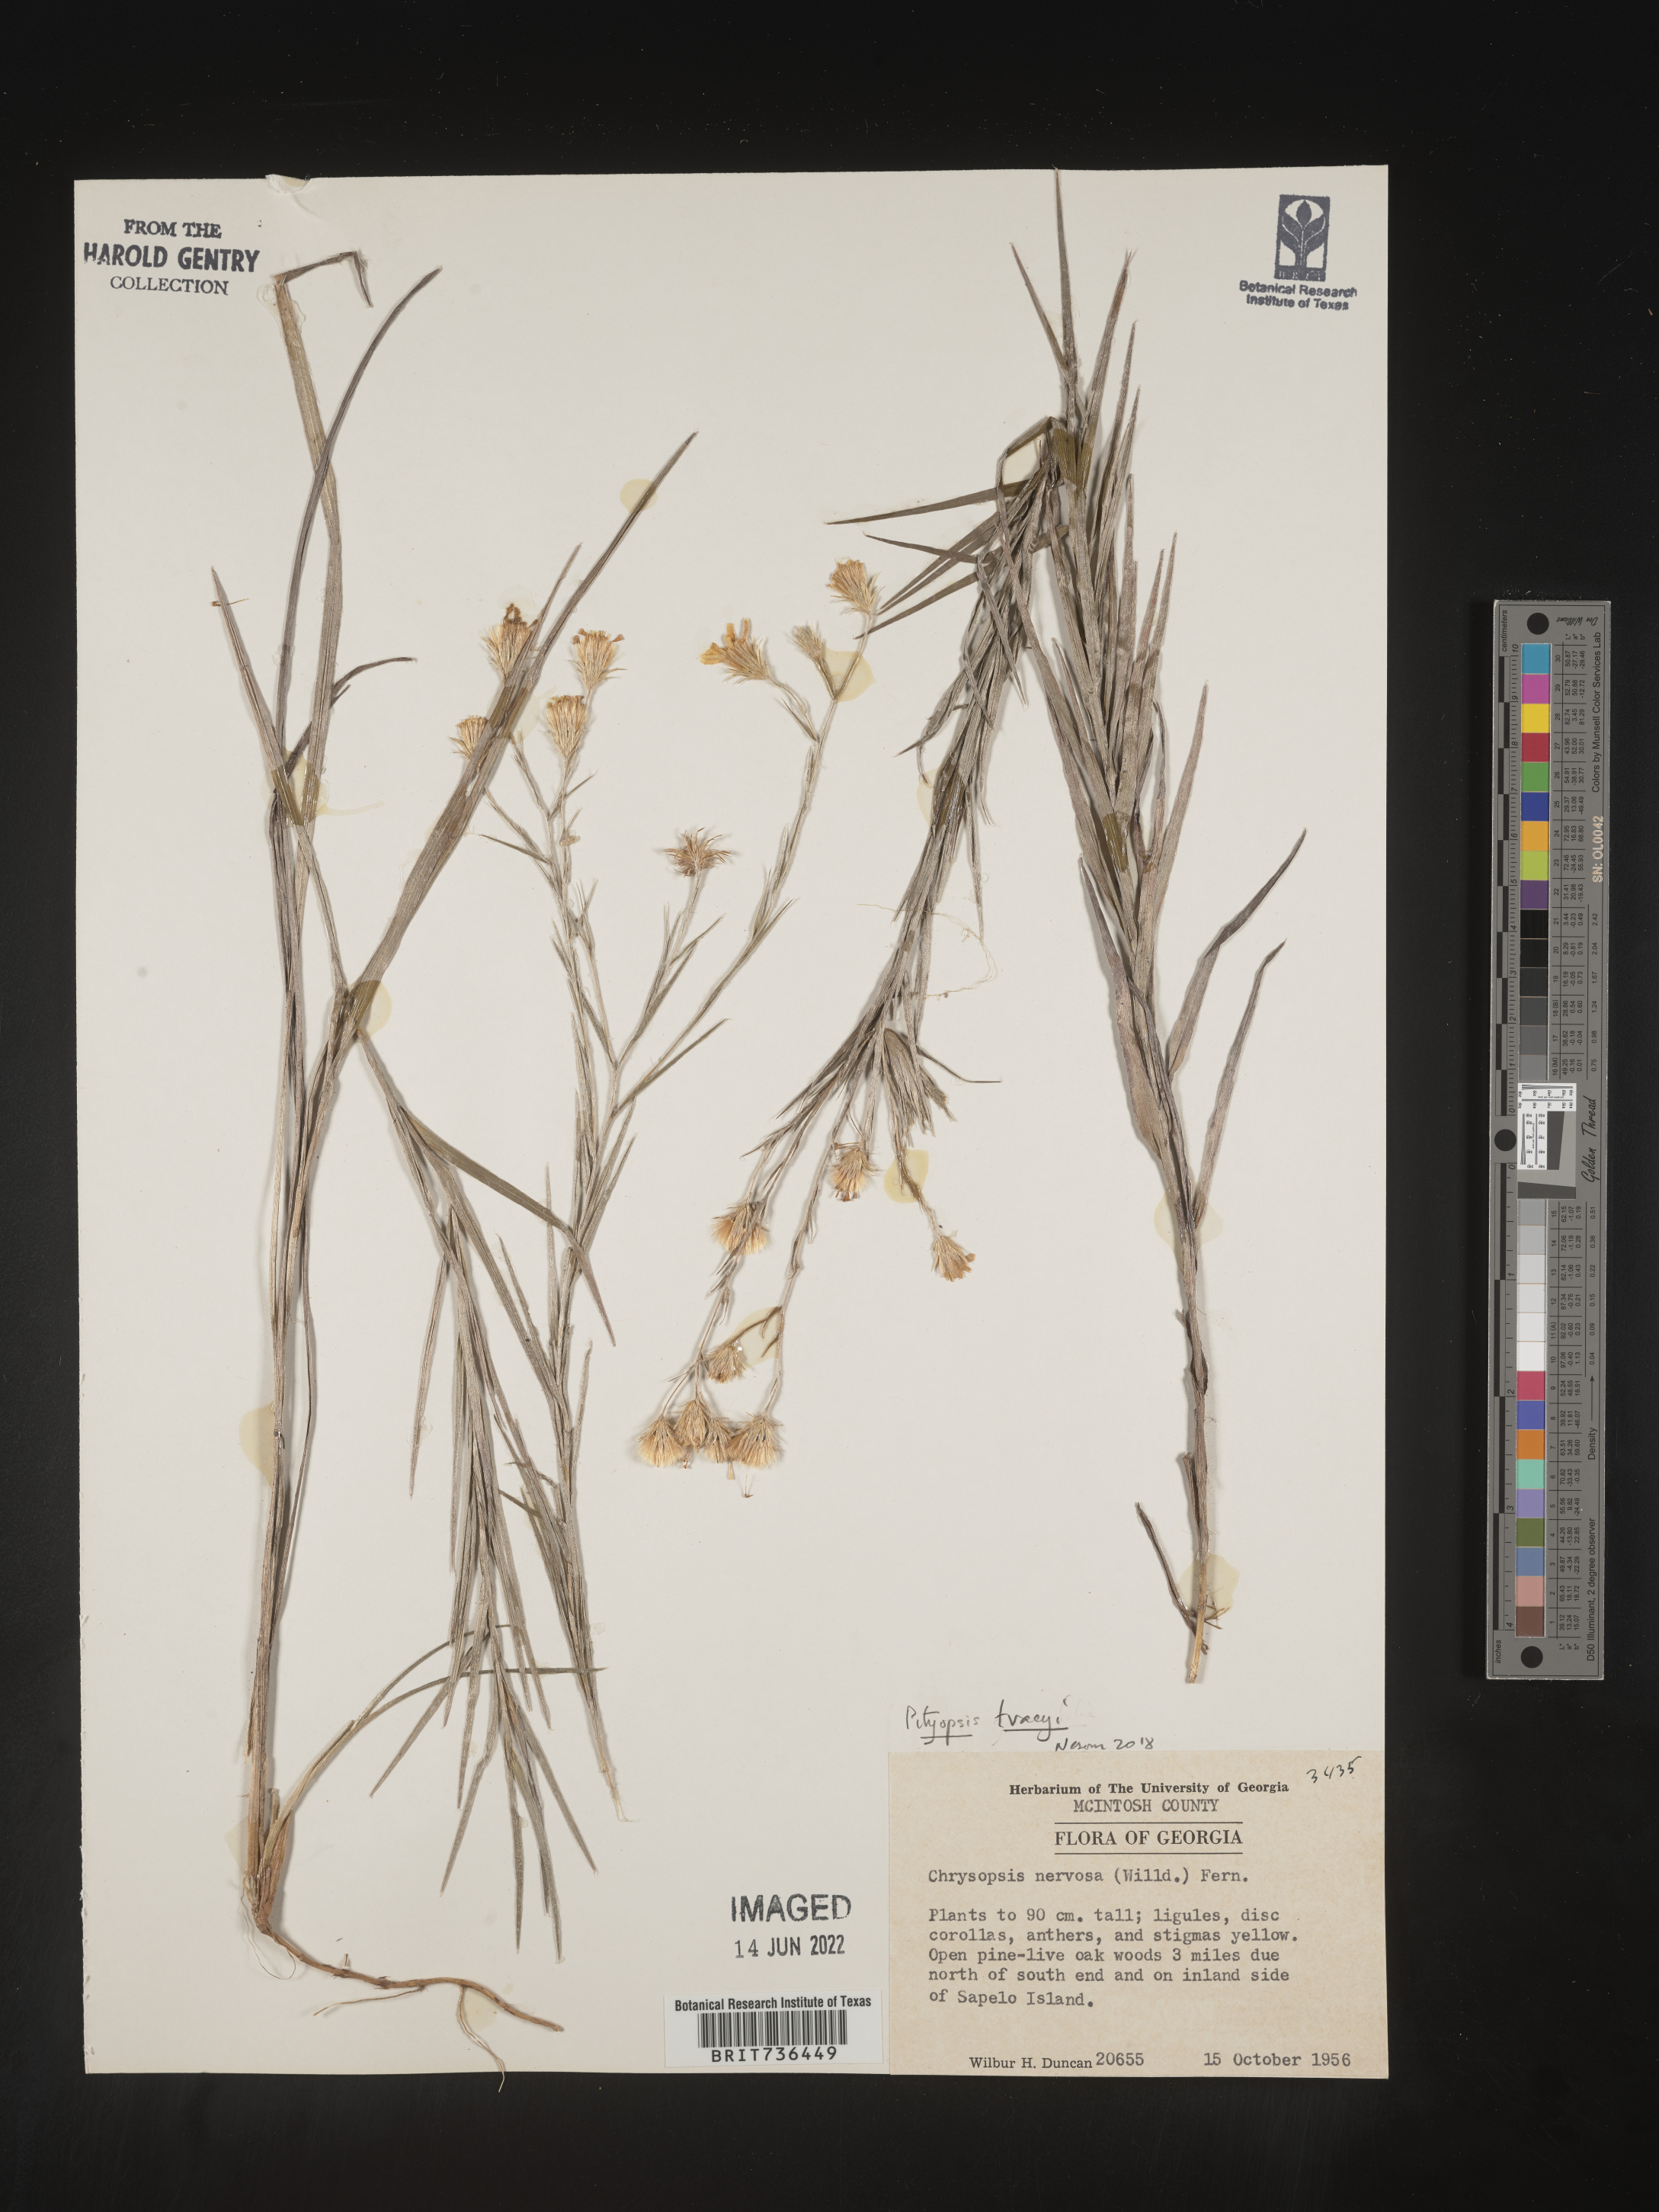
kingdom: Plantae
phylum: Tracheophyta
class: Magnoliopsida
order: Asterales
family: Asteraceae
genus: Pityopsis
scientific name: Pityopsis tracyi
